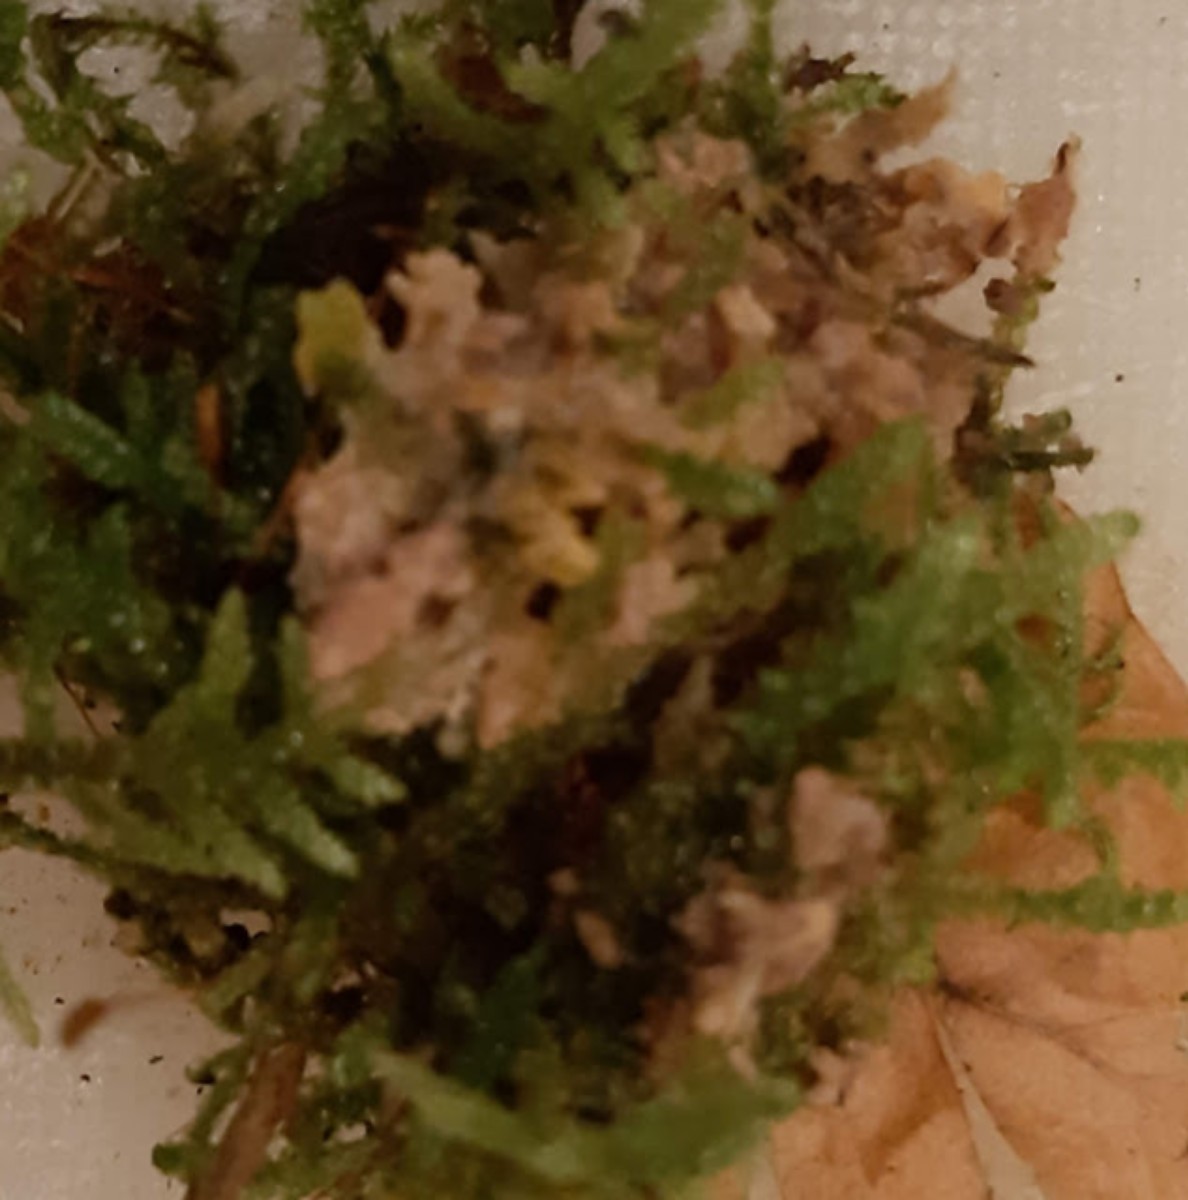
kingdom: Fungi
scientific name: Fungi
